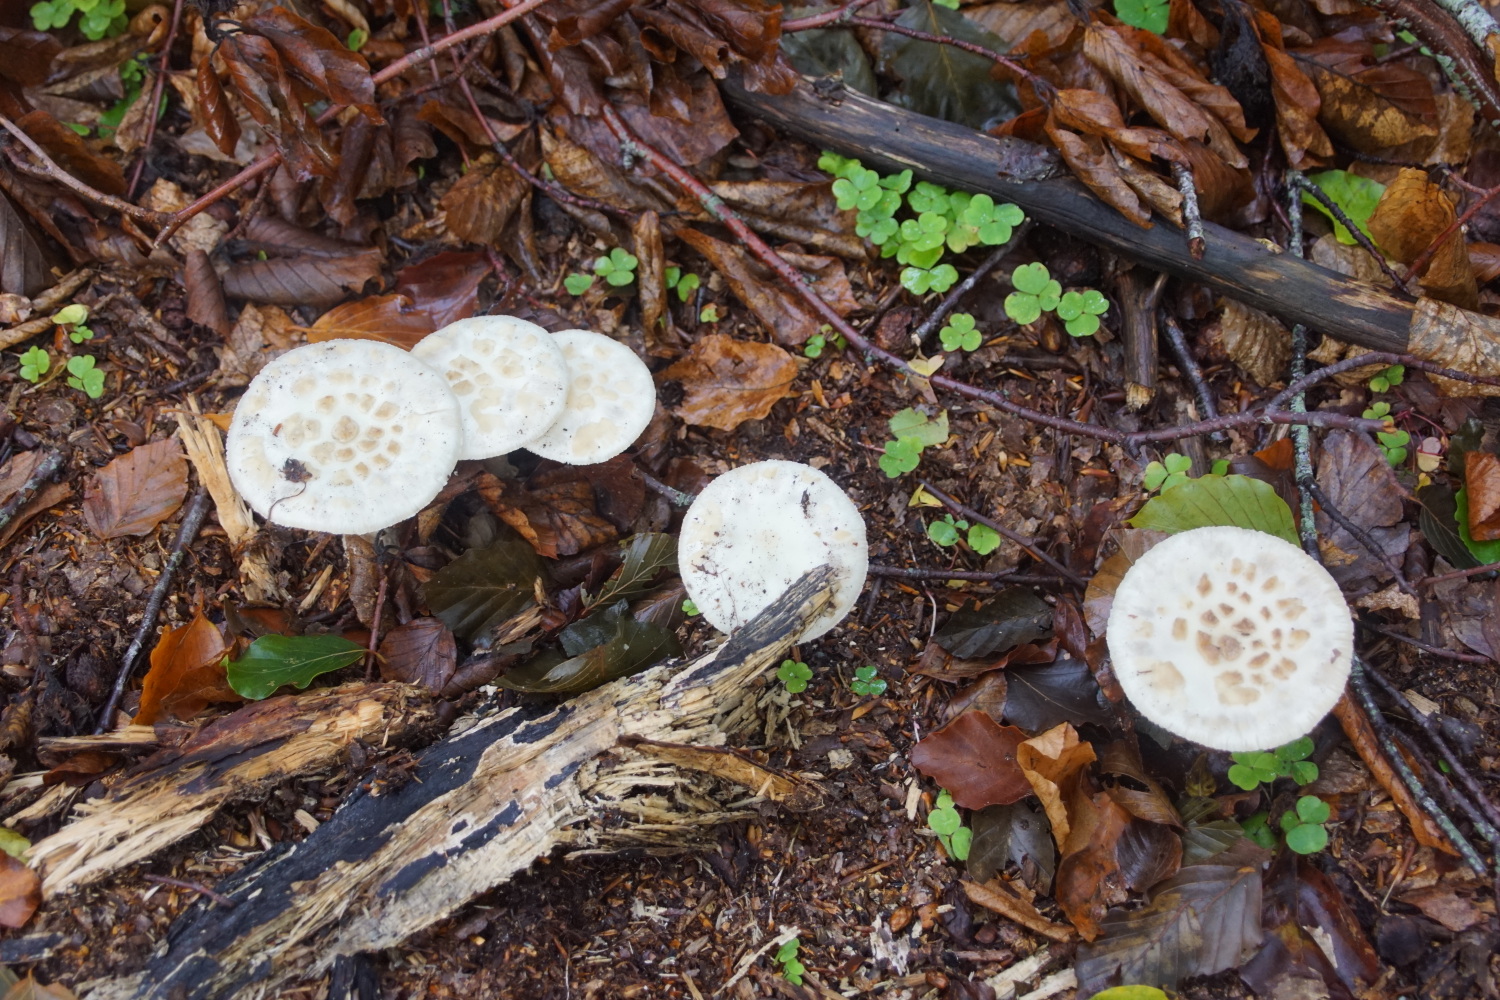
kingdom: Fungi
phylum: Basidiomycota
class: Agaricomycetes
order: Agaricales
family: Amanitaceae
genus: Amanita
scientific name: Amanita citrina
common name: False death-cap
